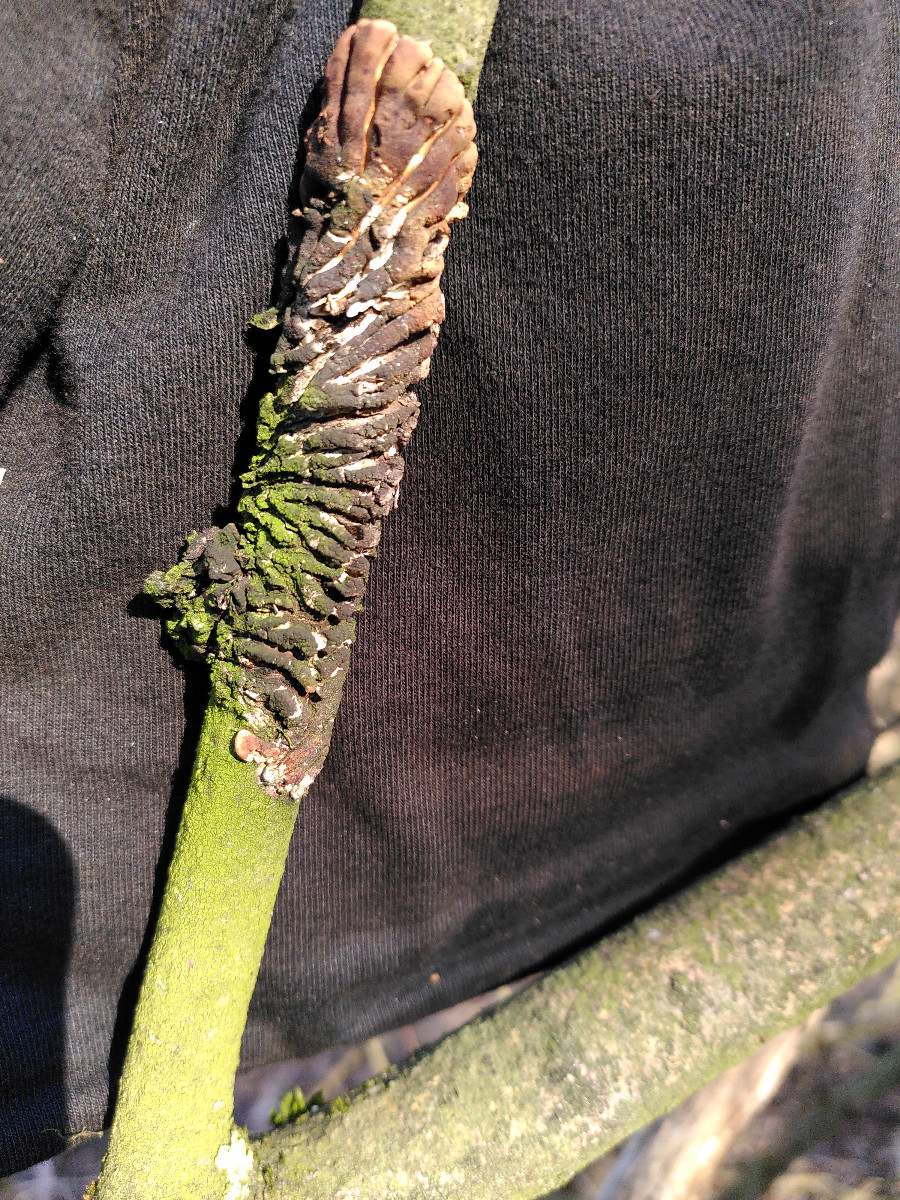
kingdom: Fungi
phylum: Ascomycota
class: Sordariomycetes
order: Hypocreales
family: Hypocreaceae
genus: Hypocreopsis
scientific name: Hypocreopsis lichenoides
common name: pilfinger
